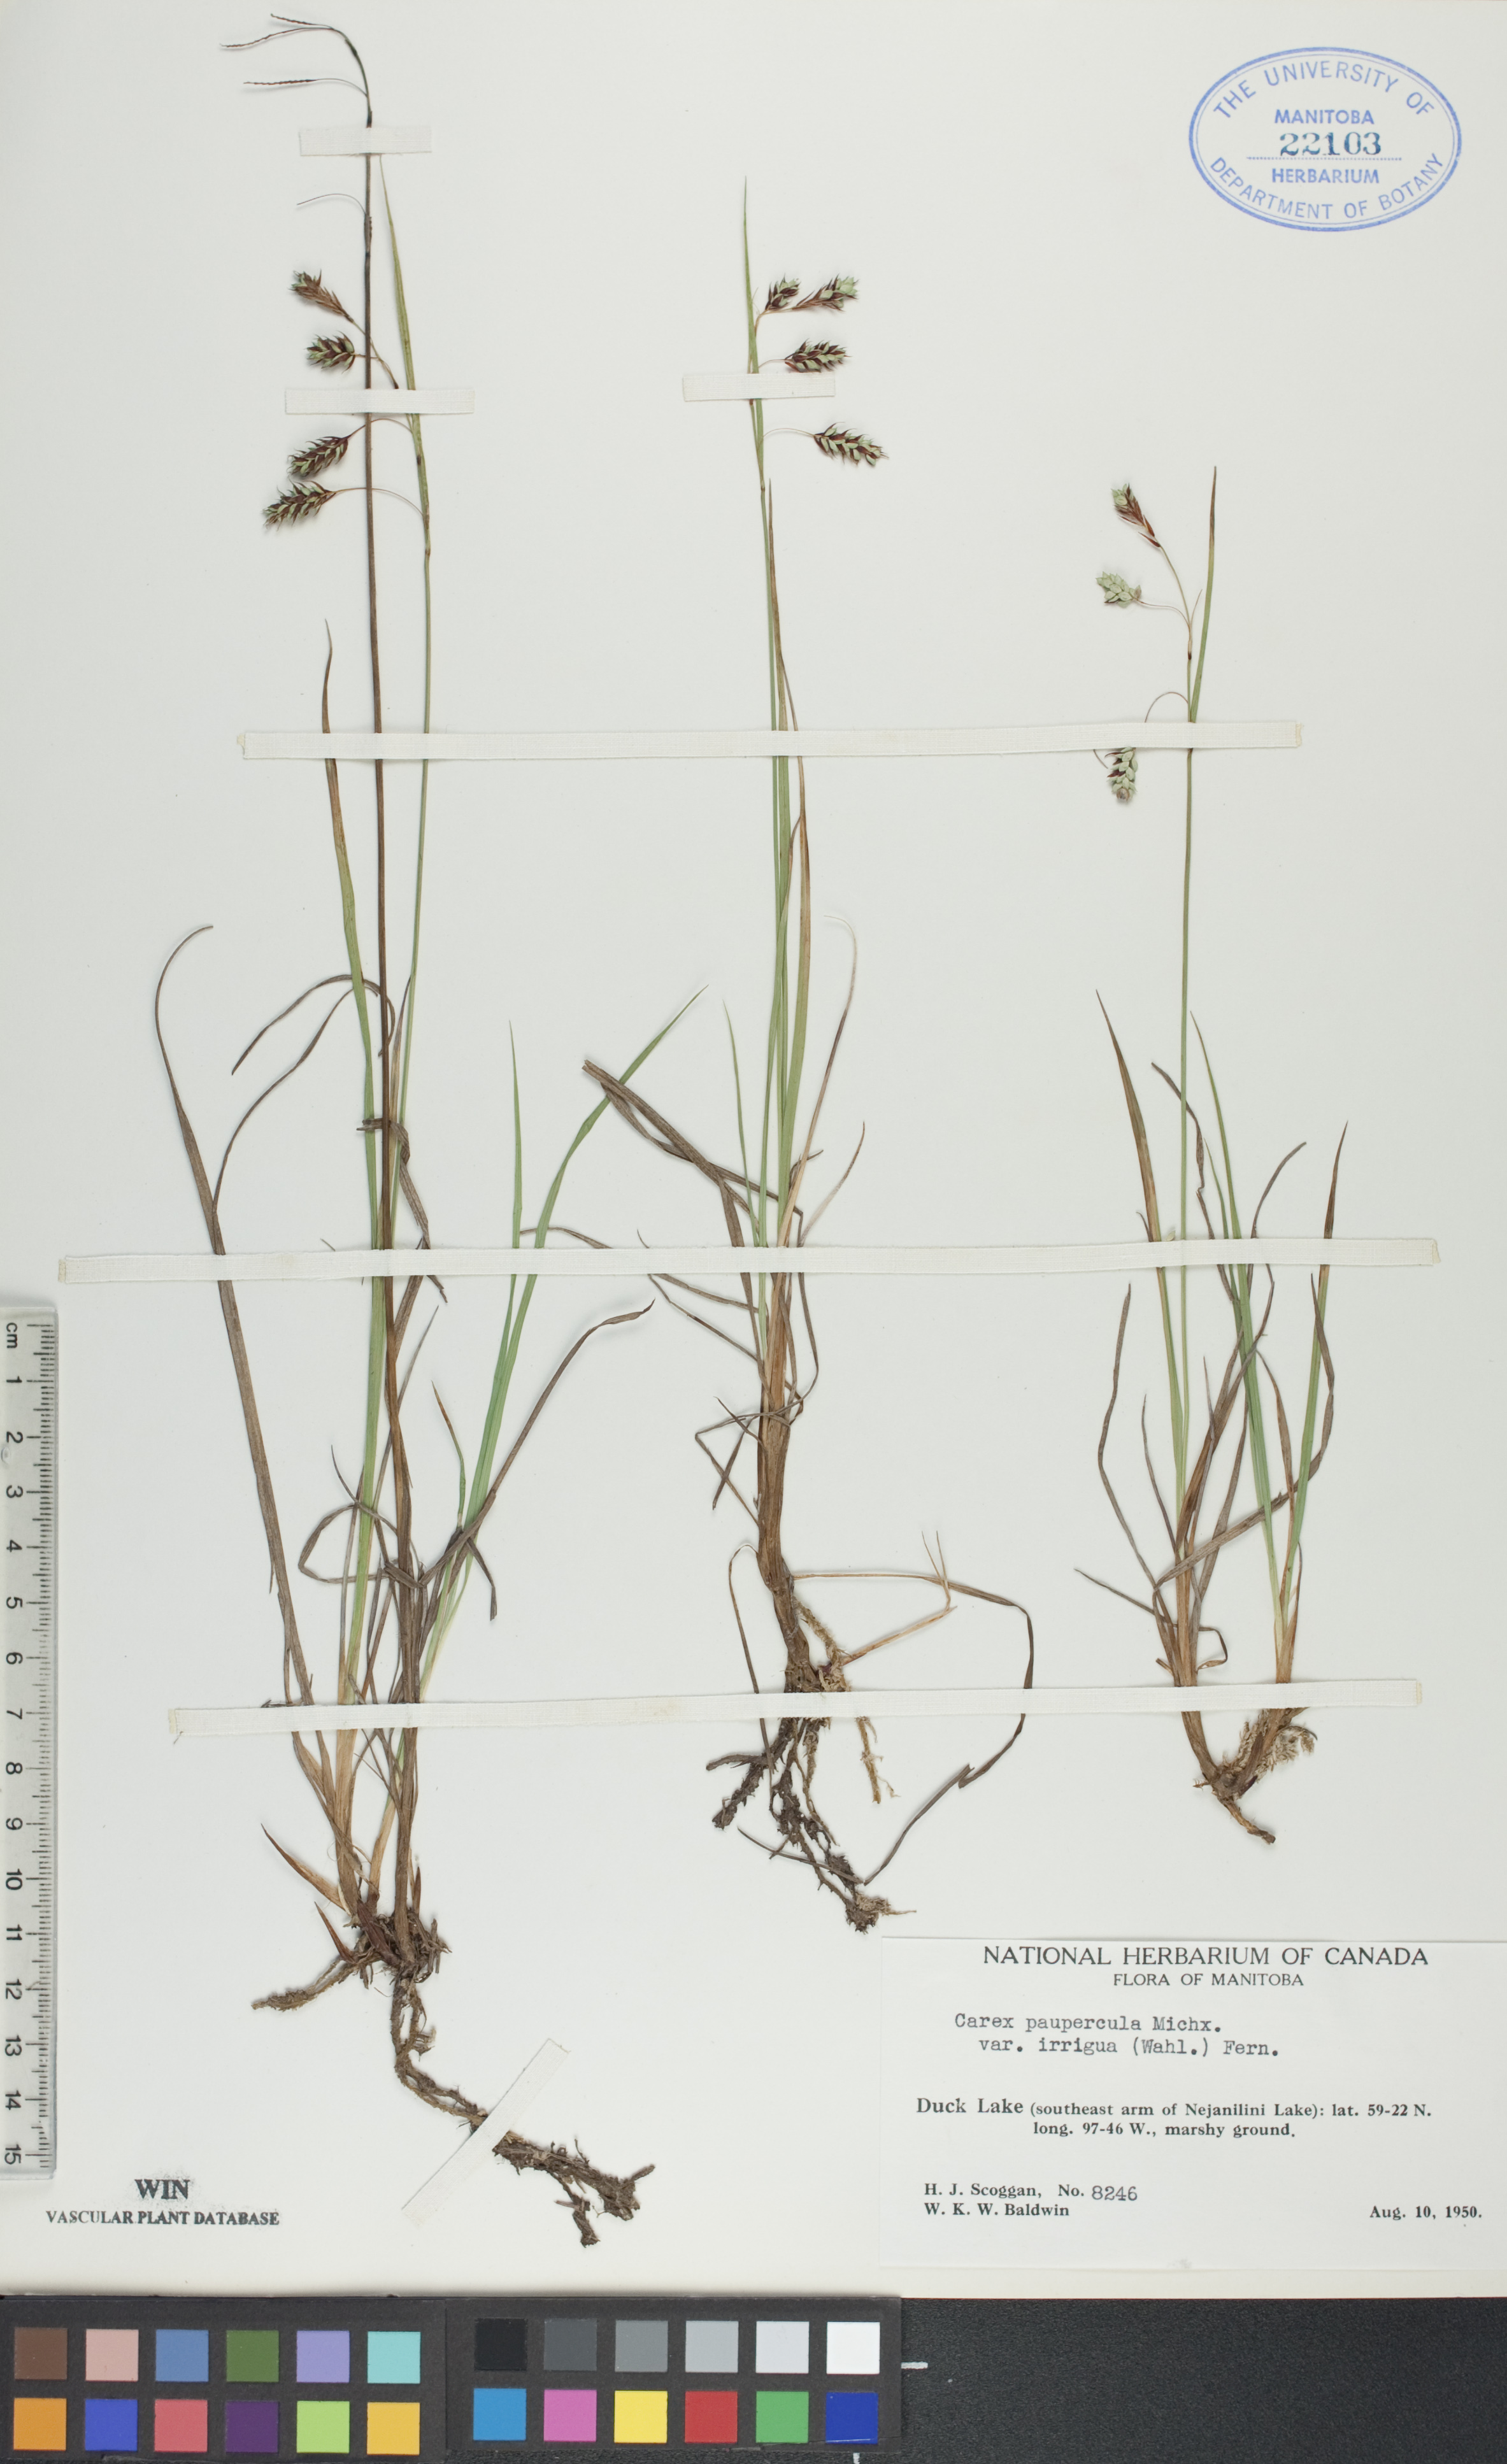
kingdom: Plantae
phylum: Tracheophyta
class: Liliopsida
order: Poales
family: Cyperaceae
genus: Carex
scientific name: Carex magellanica
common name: Bog sedge
